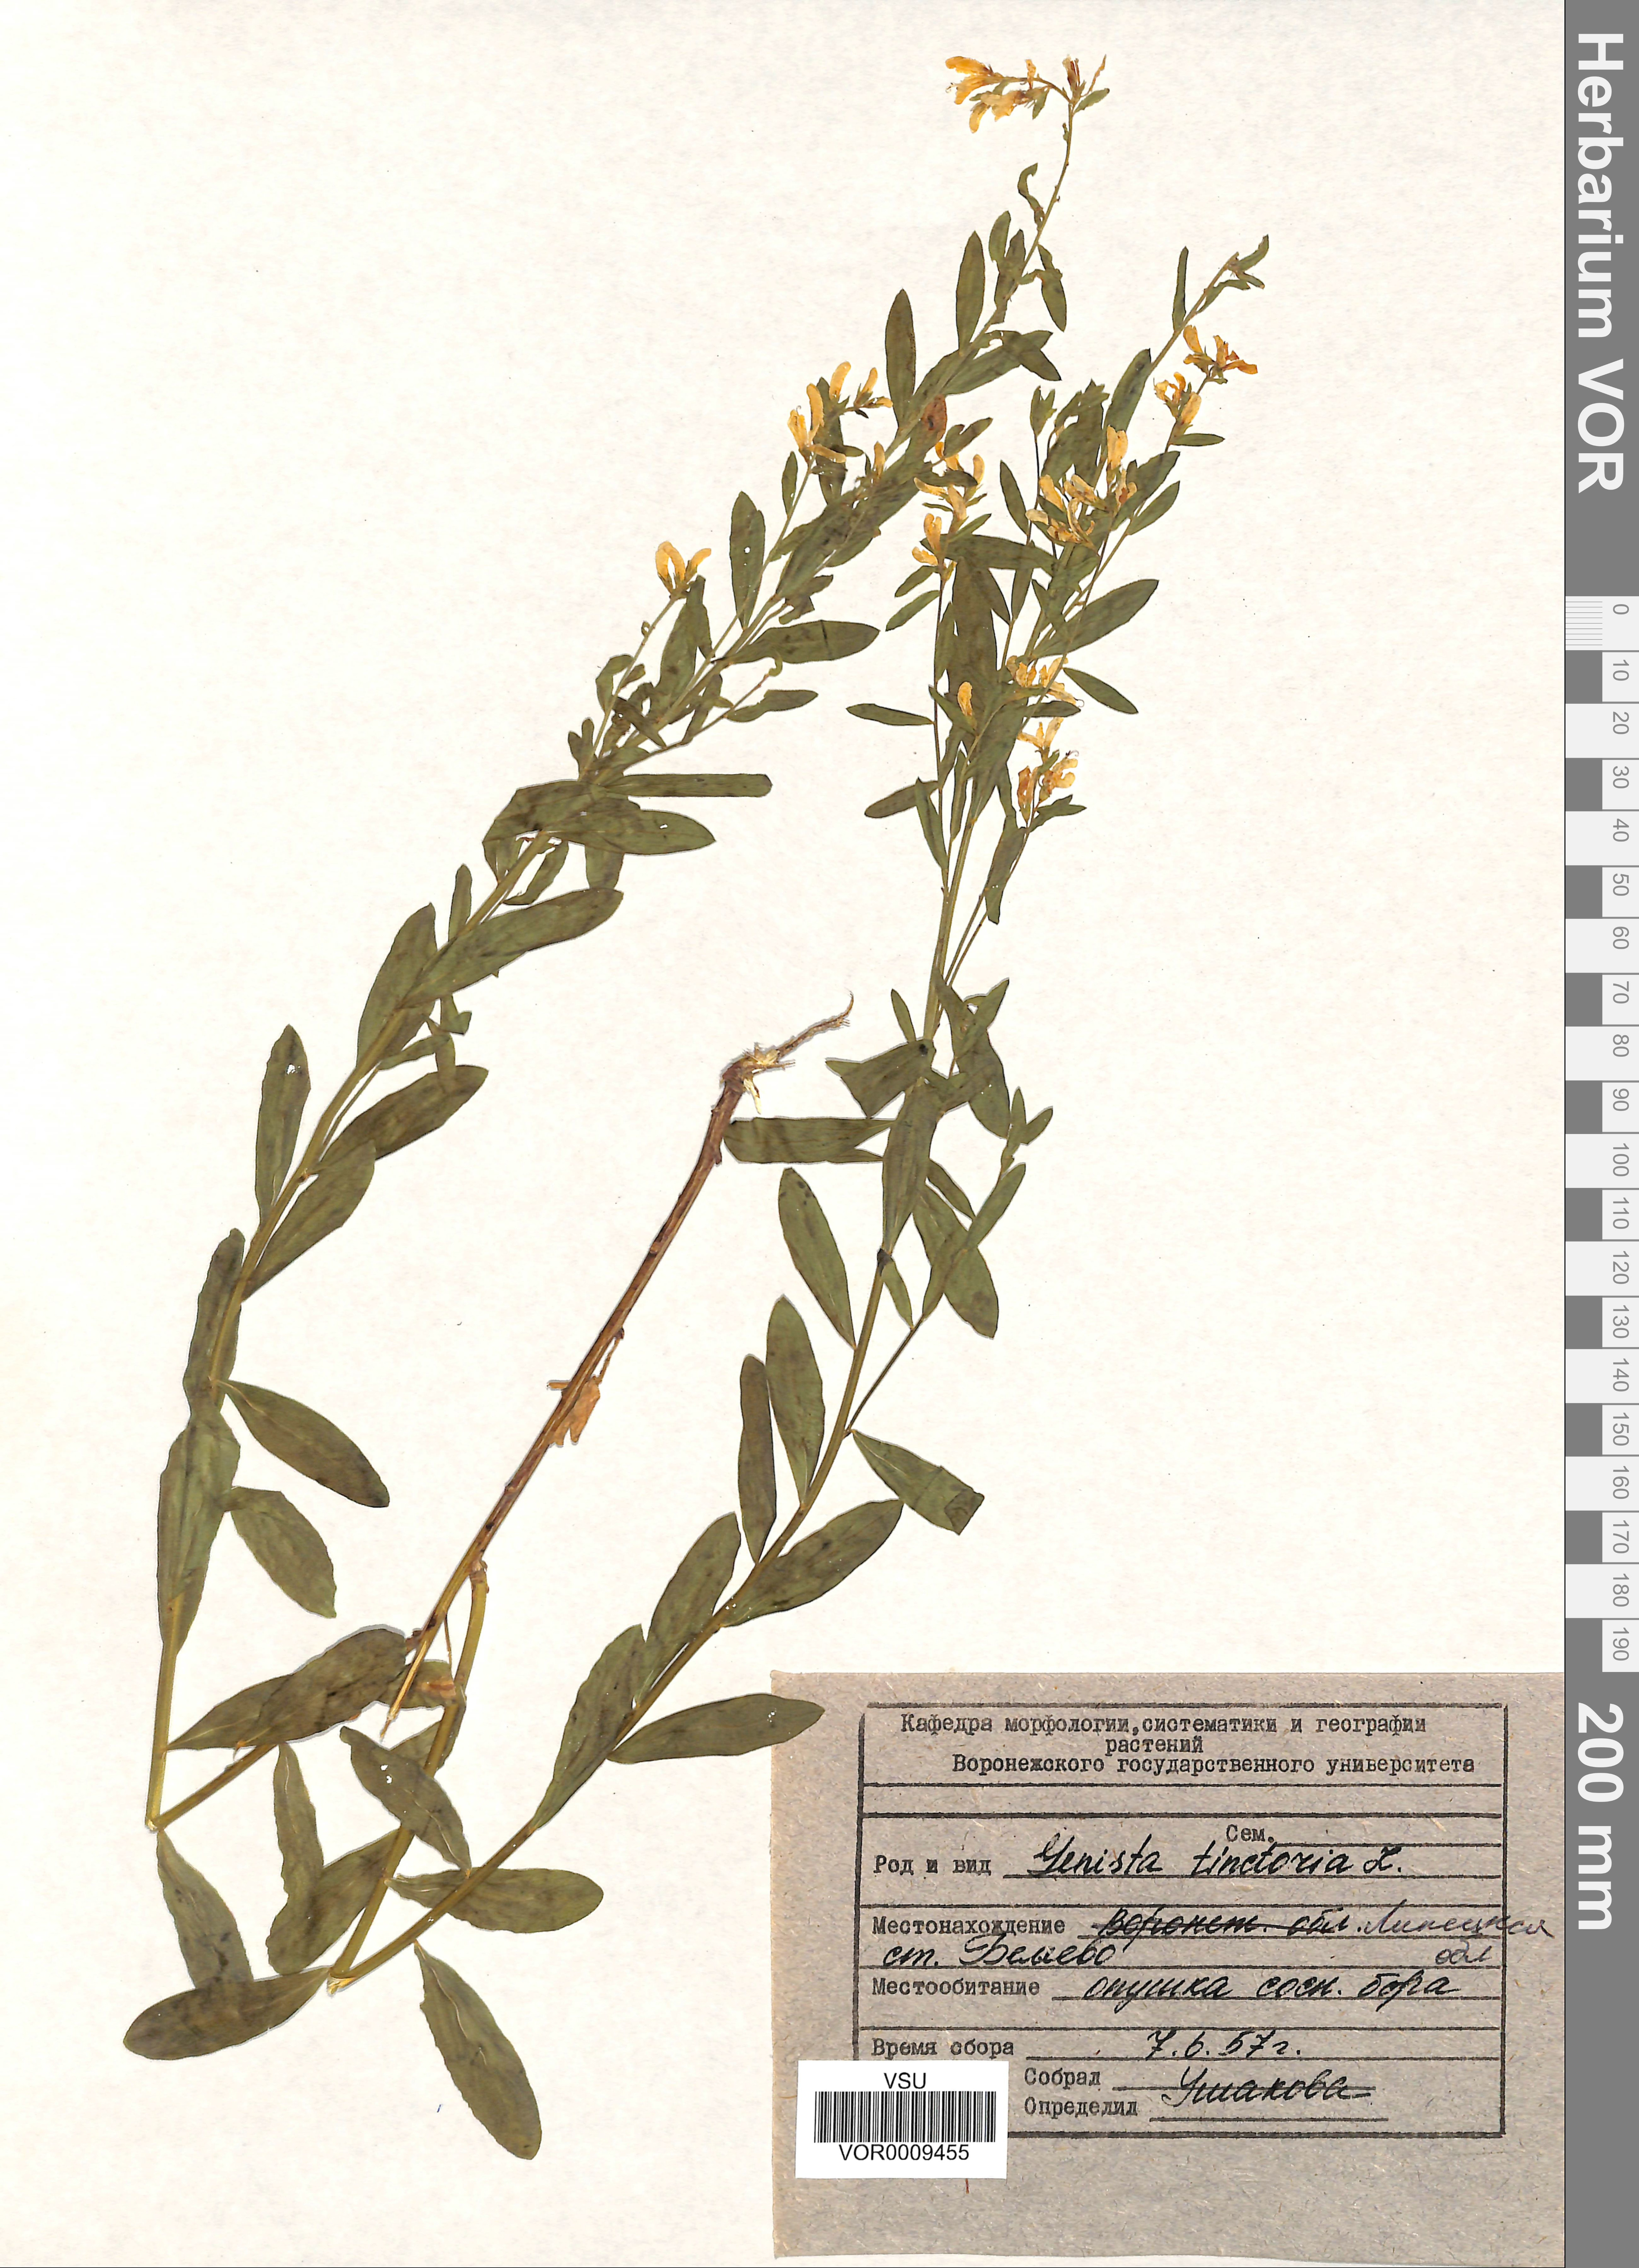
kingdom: Plantae
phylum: Tracheophyta
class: Magnoliopsida
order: Fabales
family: Fabaceae
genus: Genista
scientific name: Genista tinctoria
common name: Dyer's greenweed
